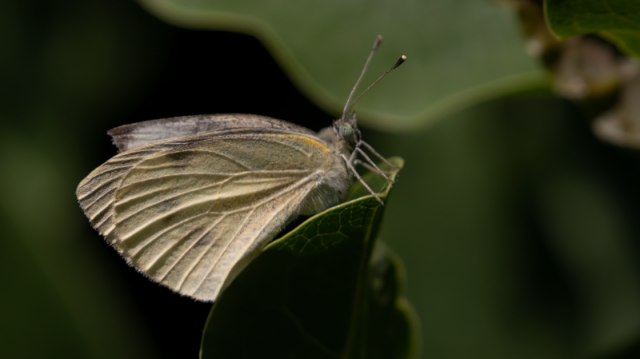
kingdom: Animalia
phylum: Arthropoda
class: Insecta
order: Lepidoptera
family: Pieridae
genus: Pieris
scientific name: Pieris rapae
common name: Cabbage White
